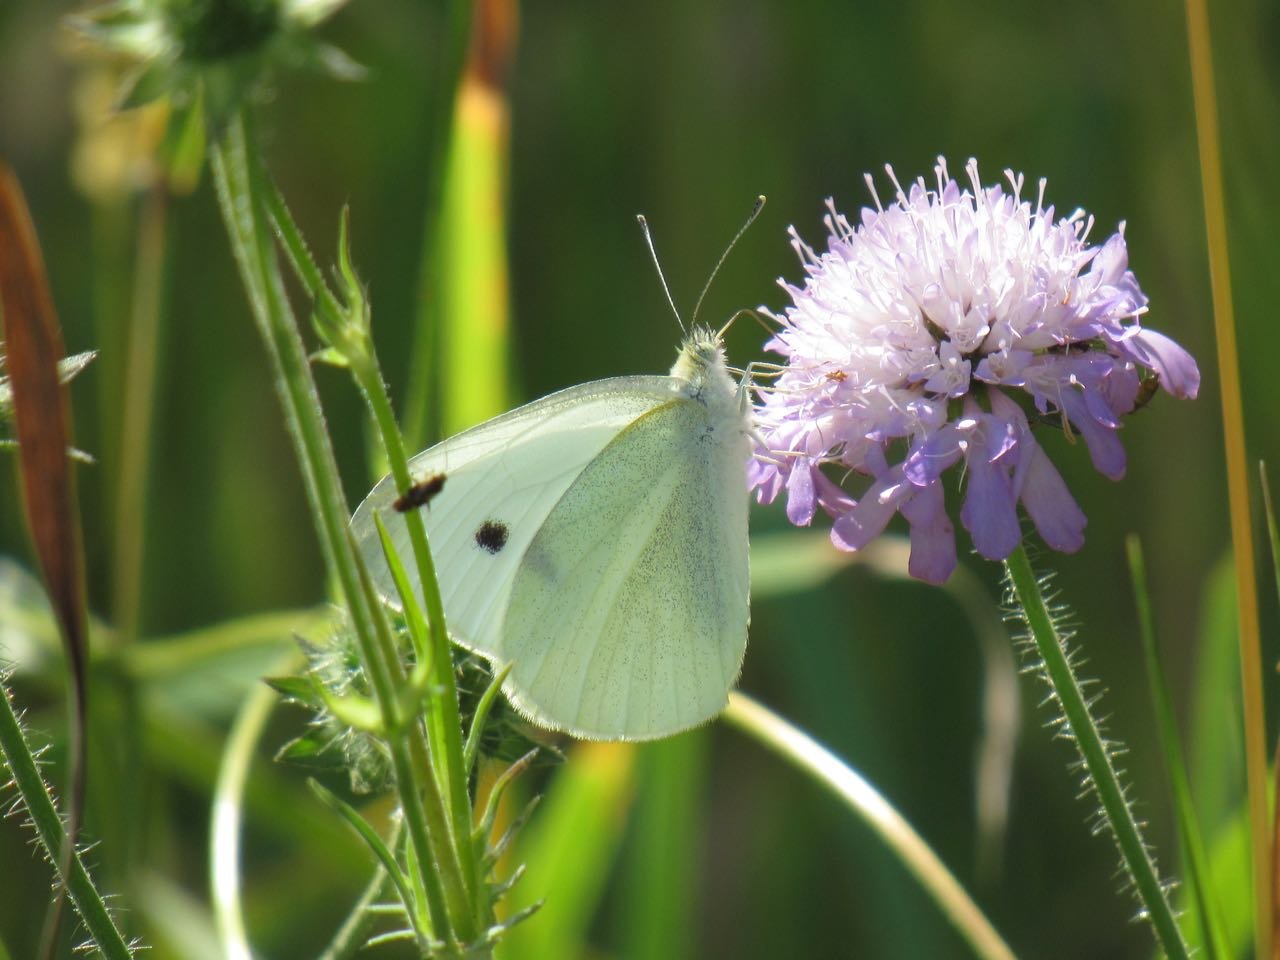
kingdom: Animalia
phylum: Arthropoda
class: Insecta
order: Lepidoptera
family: Pieridae
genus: Pieris
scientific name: Pieris rapae
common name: Cabbage White
